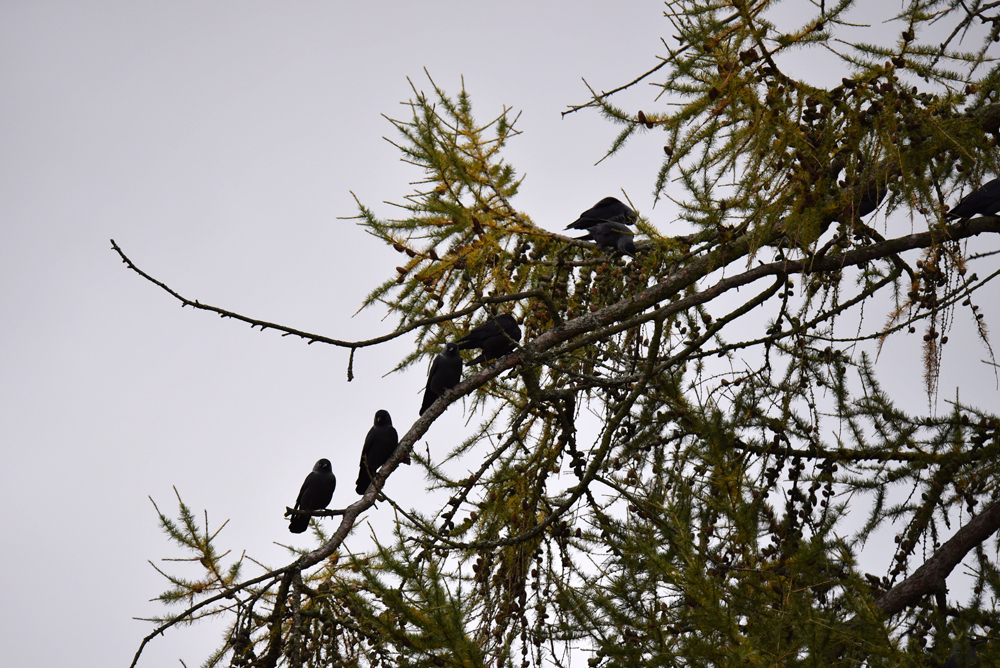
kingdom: Animalia
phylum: Chordata
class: Aves
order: Passeriformes
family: Corvidae
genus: Coloeus
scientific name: Coloeus monedula
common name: Western jackdaw
